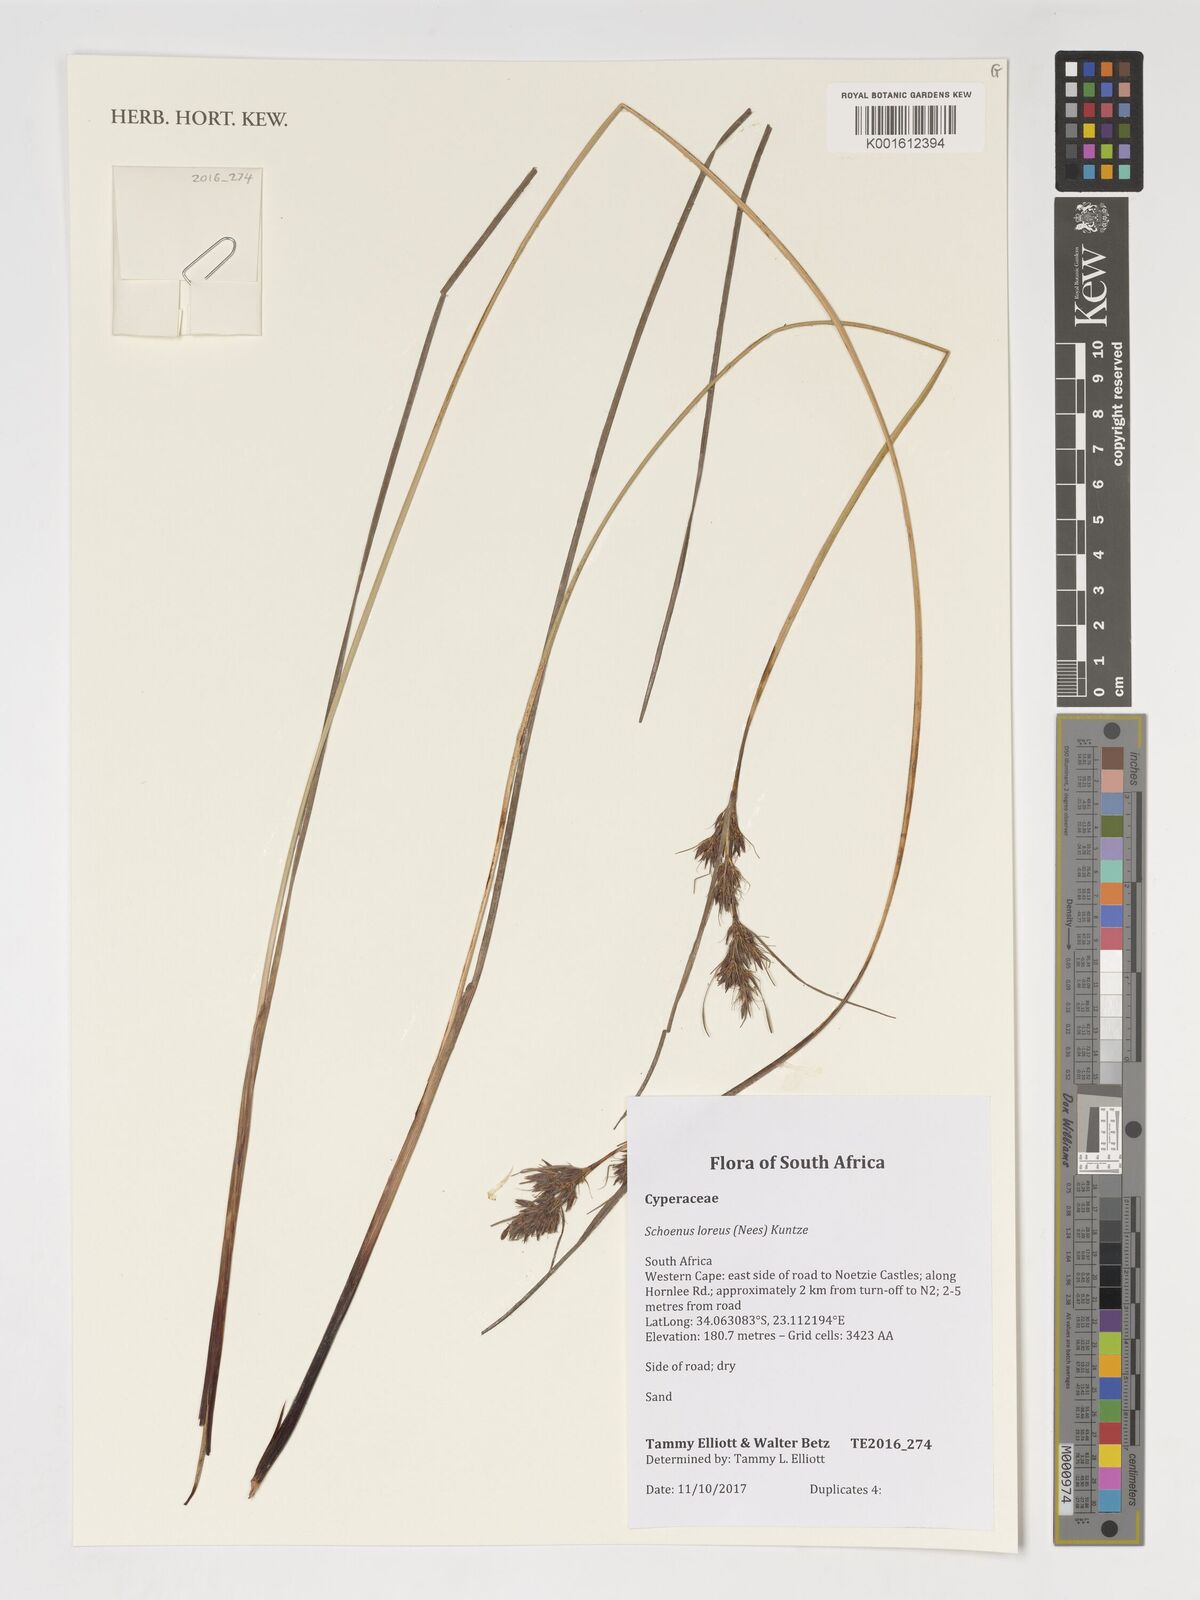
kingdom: Plantae
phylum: Tracheophyta
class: Liliopsida
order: Poales
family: Cyperaceae
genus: Schoenus
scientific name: Schoenus loreus
